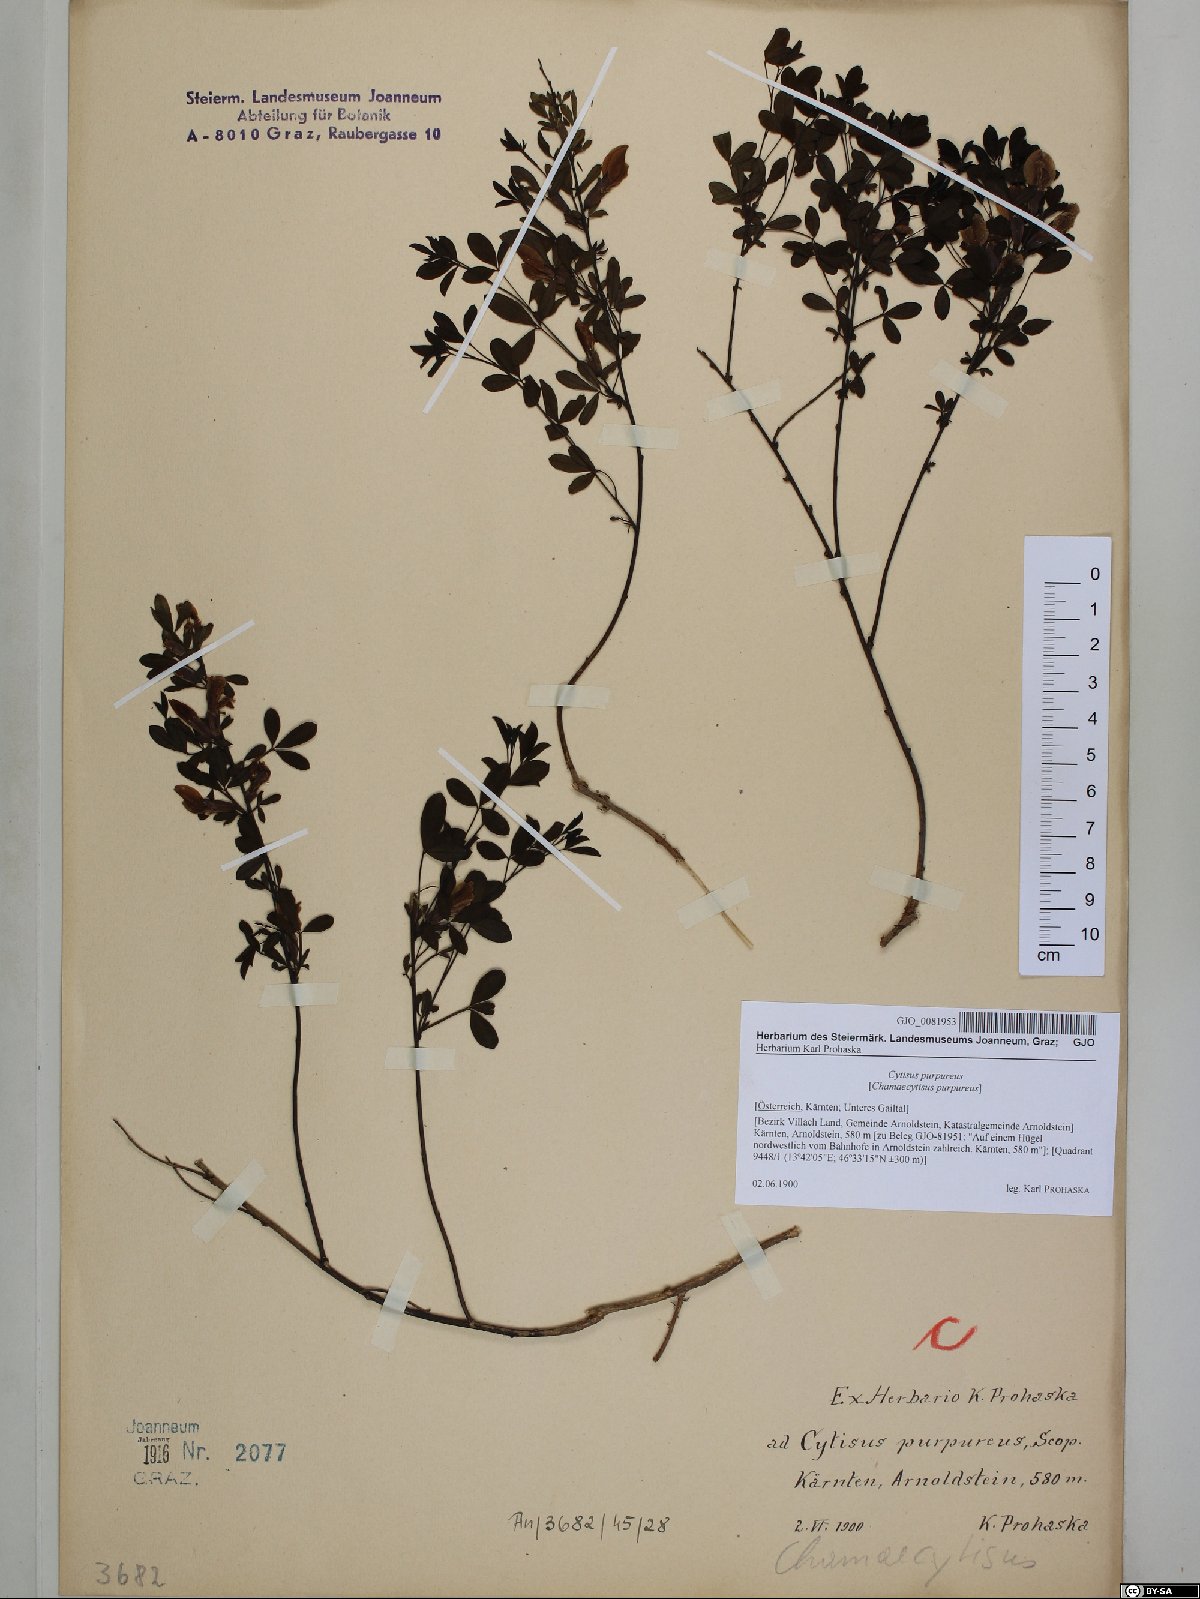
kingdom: Plantae
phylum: Tracheophyta
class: Magnoliopsida
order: Fabales
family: Fabaceae
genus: Chamaecytisus
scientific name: Chamaecytisus purpureus
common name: Purple broom
